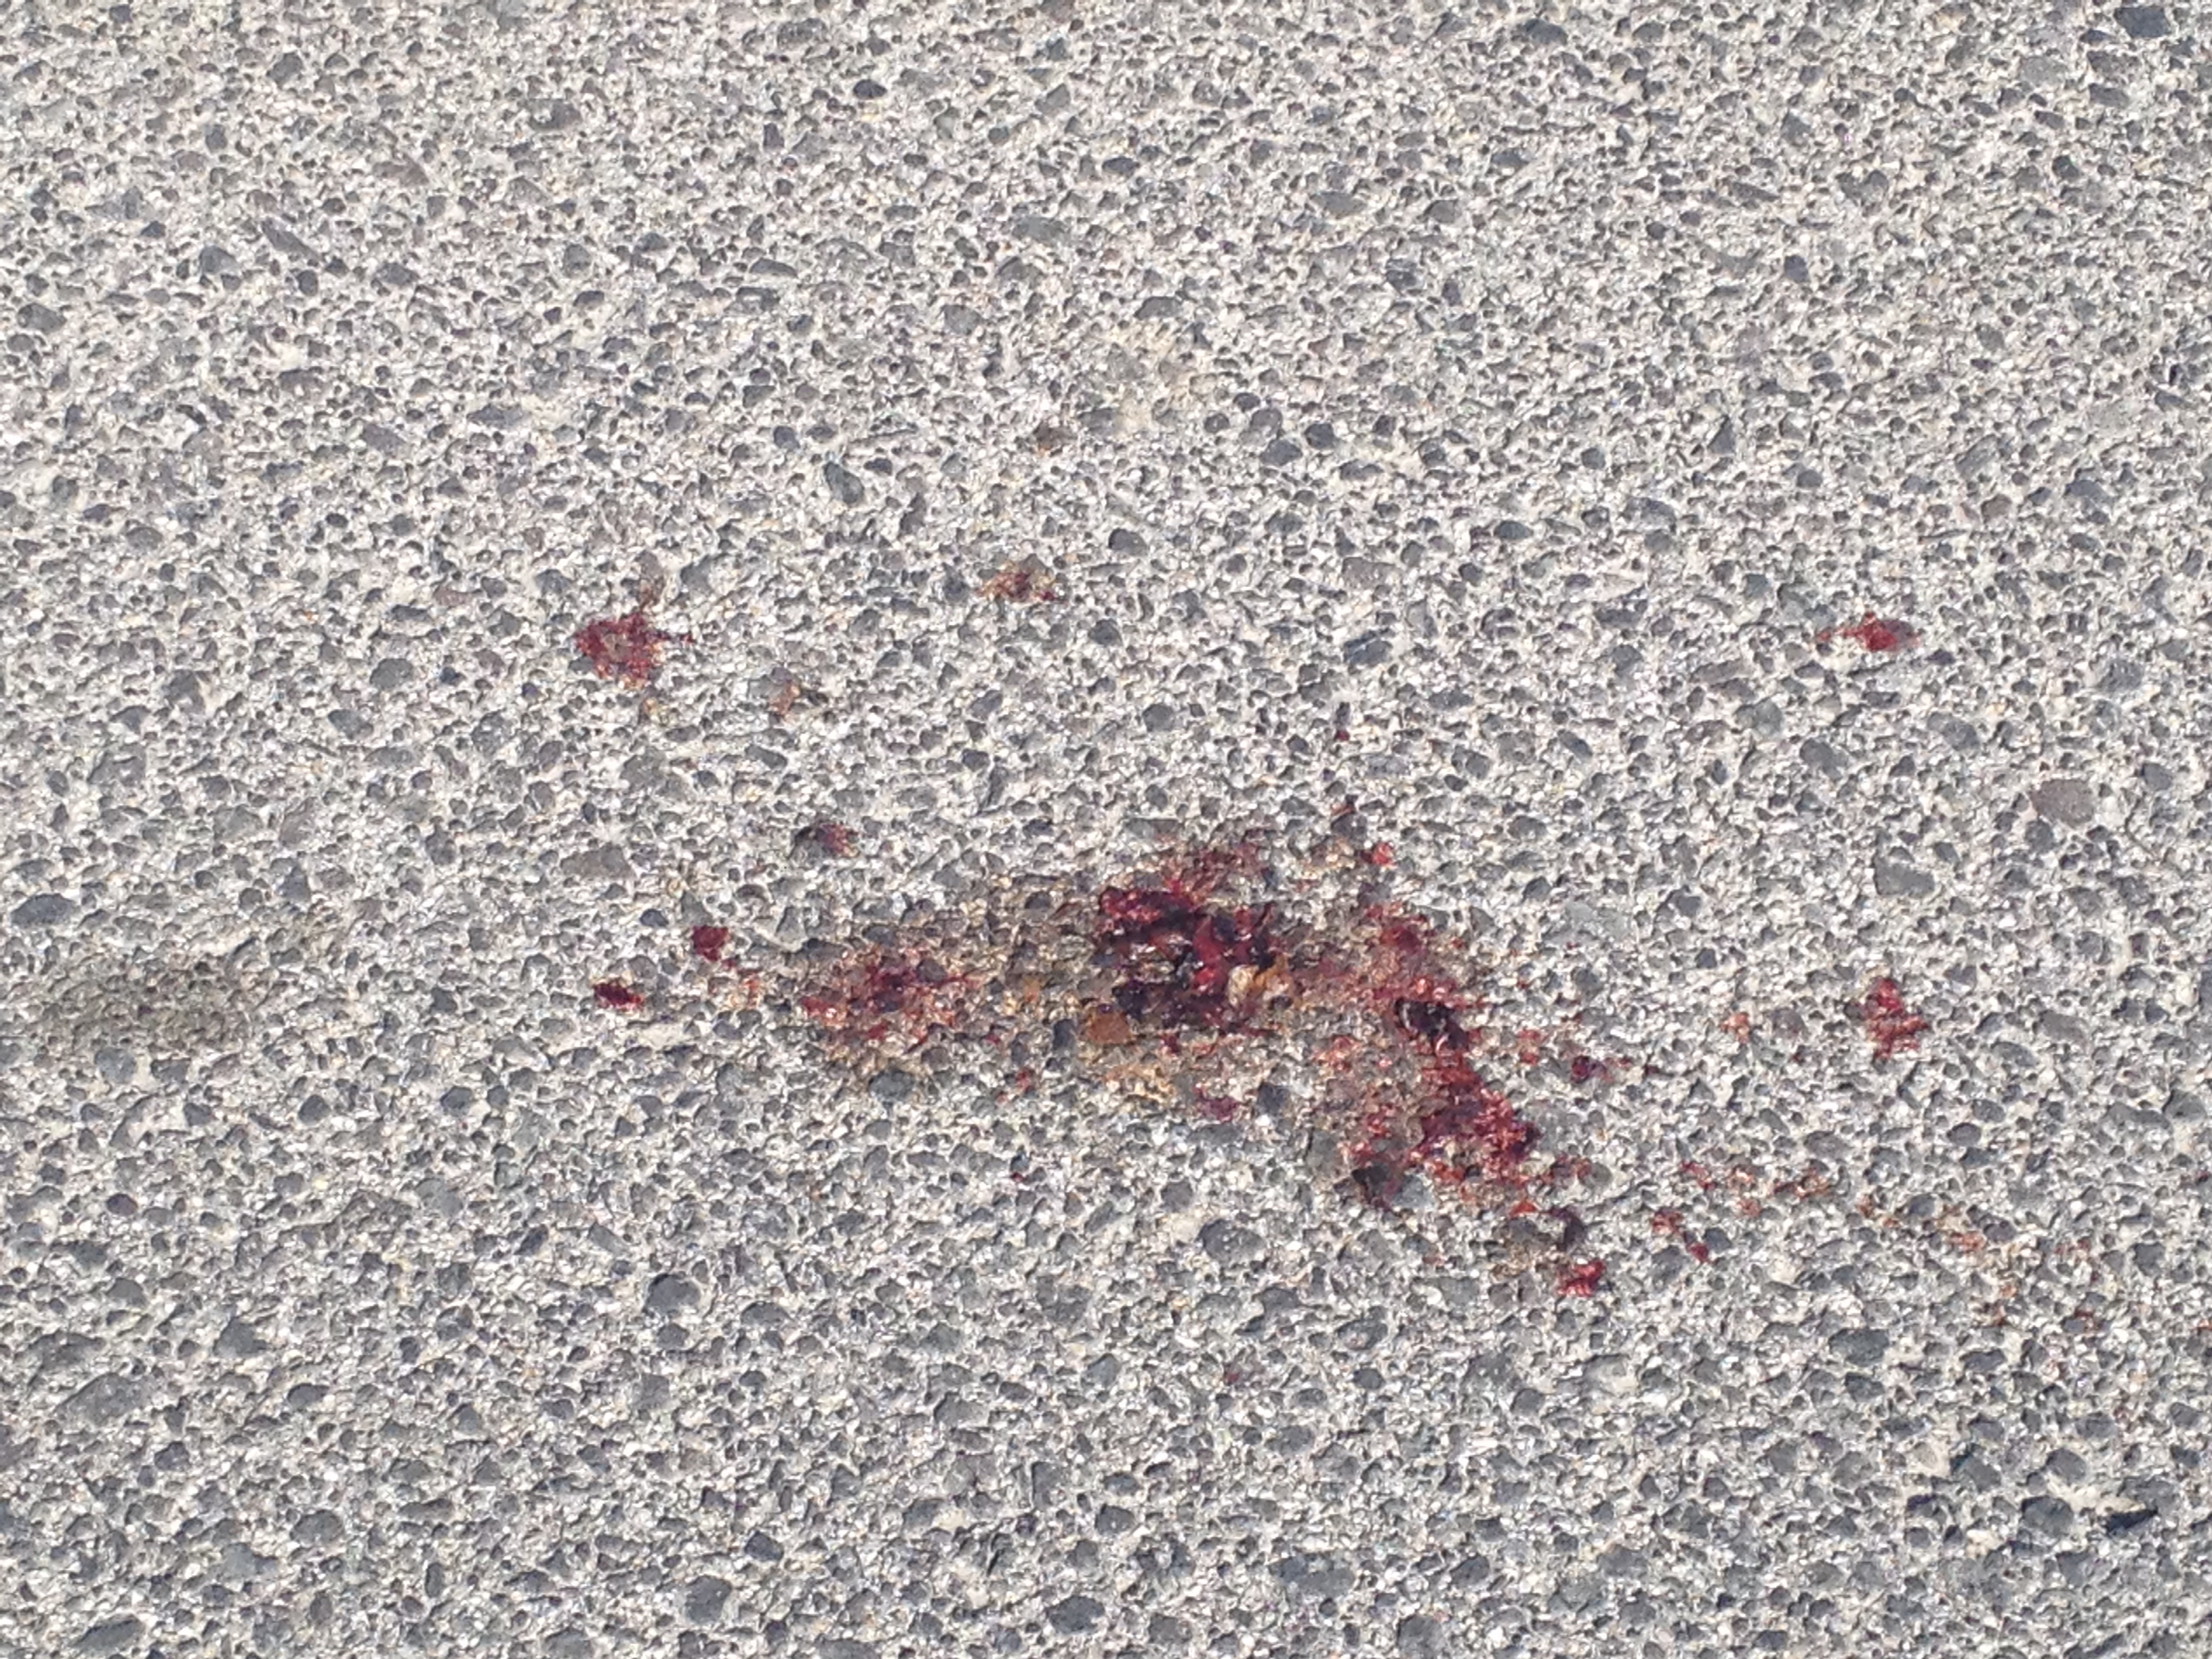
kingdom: Animalia
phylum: Chordata
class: Amphibia
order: Anura
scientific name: Anura
